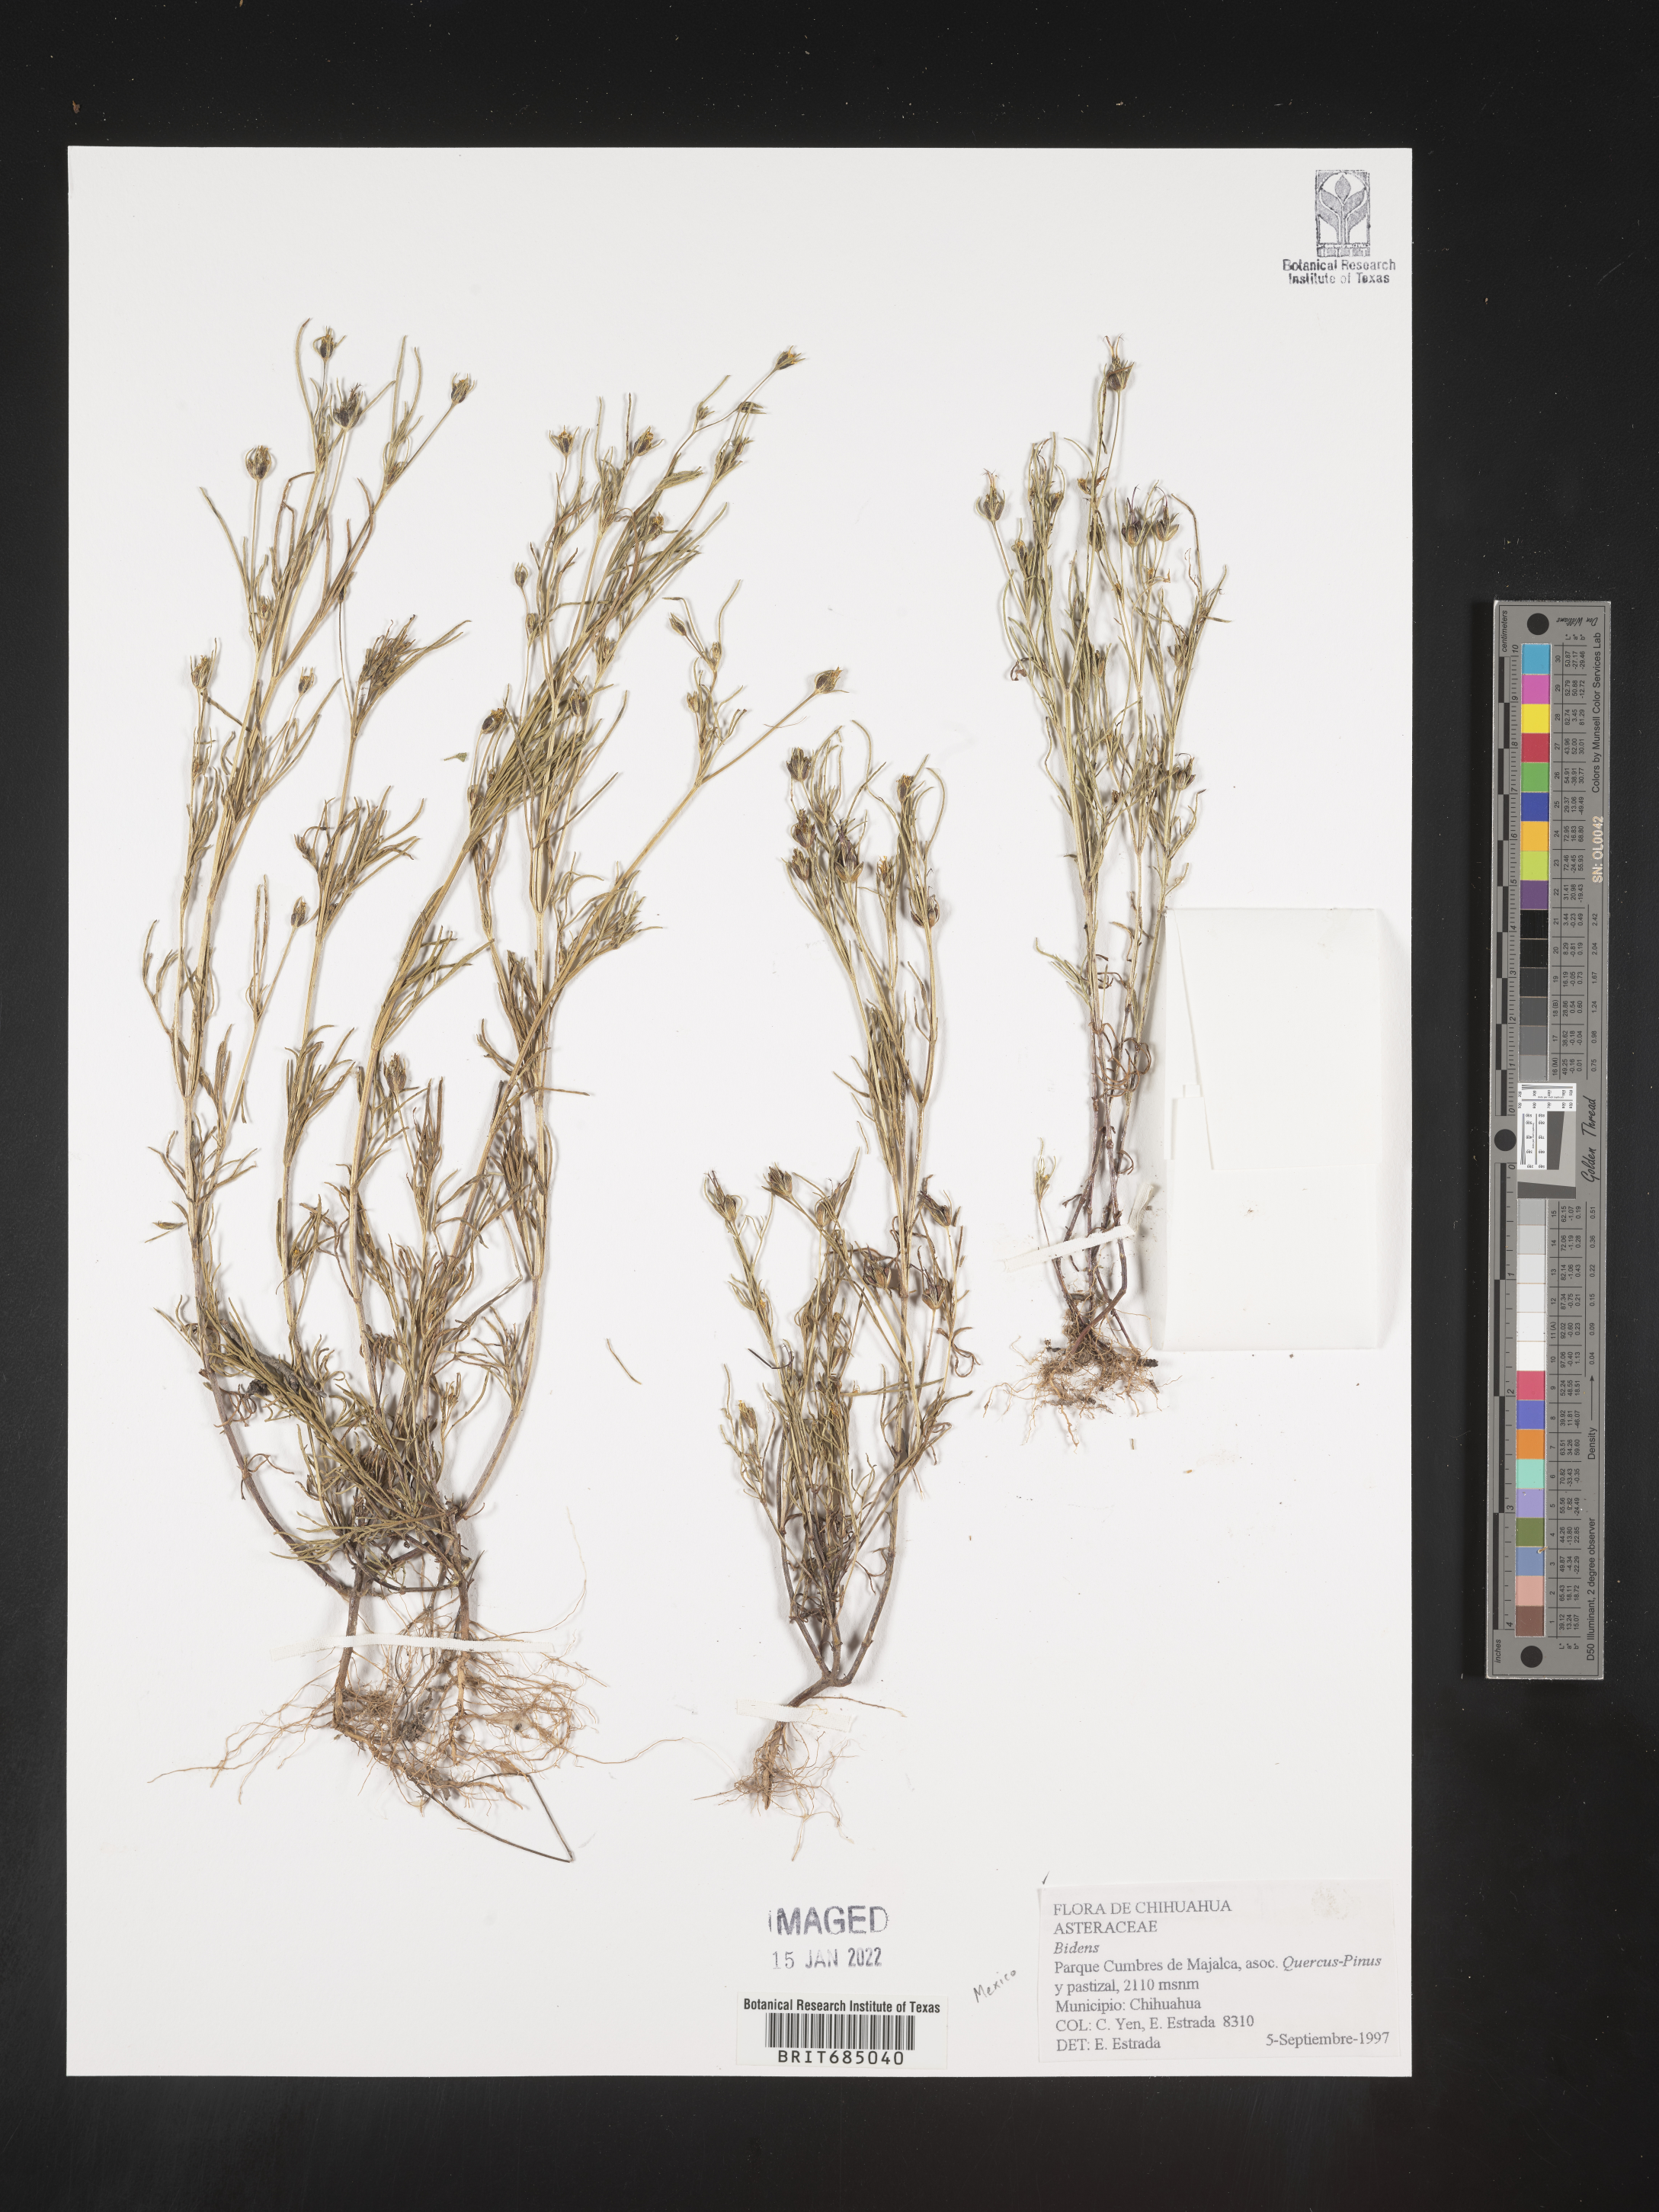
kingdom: Plantae
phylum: Tracheophyta
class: Magnoliopsida
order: Asterales
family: Asteraceae
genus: Bidens
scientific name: Bidens
